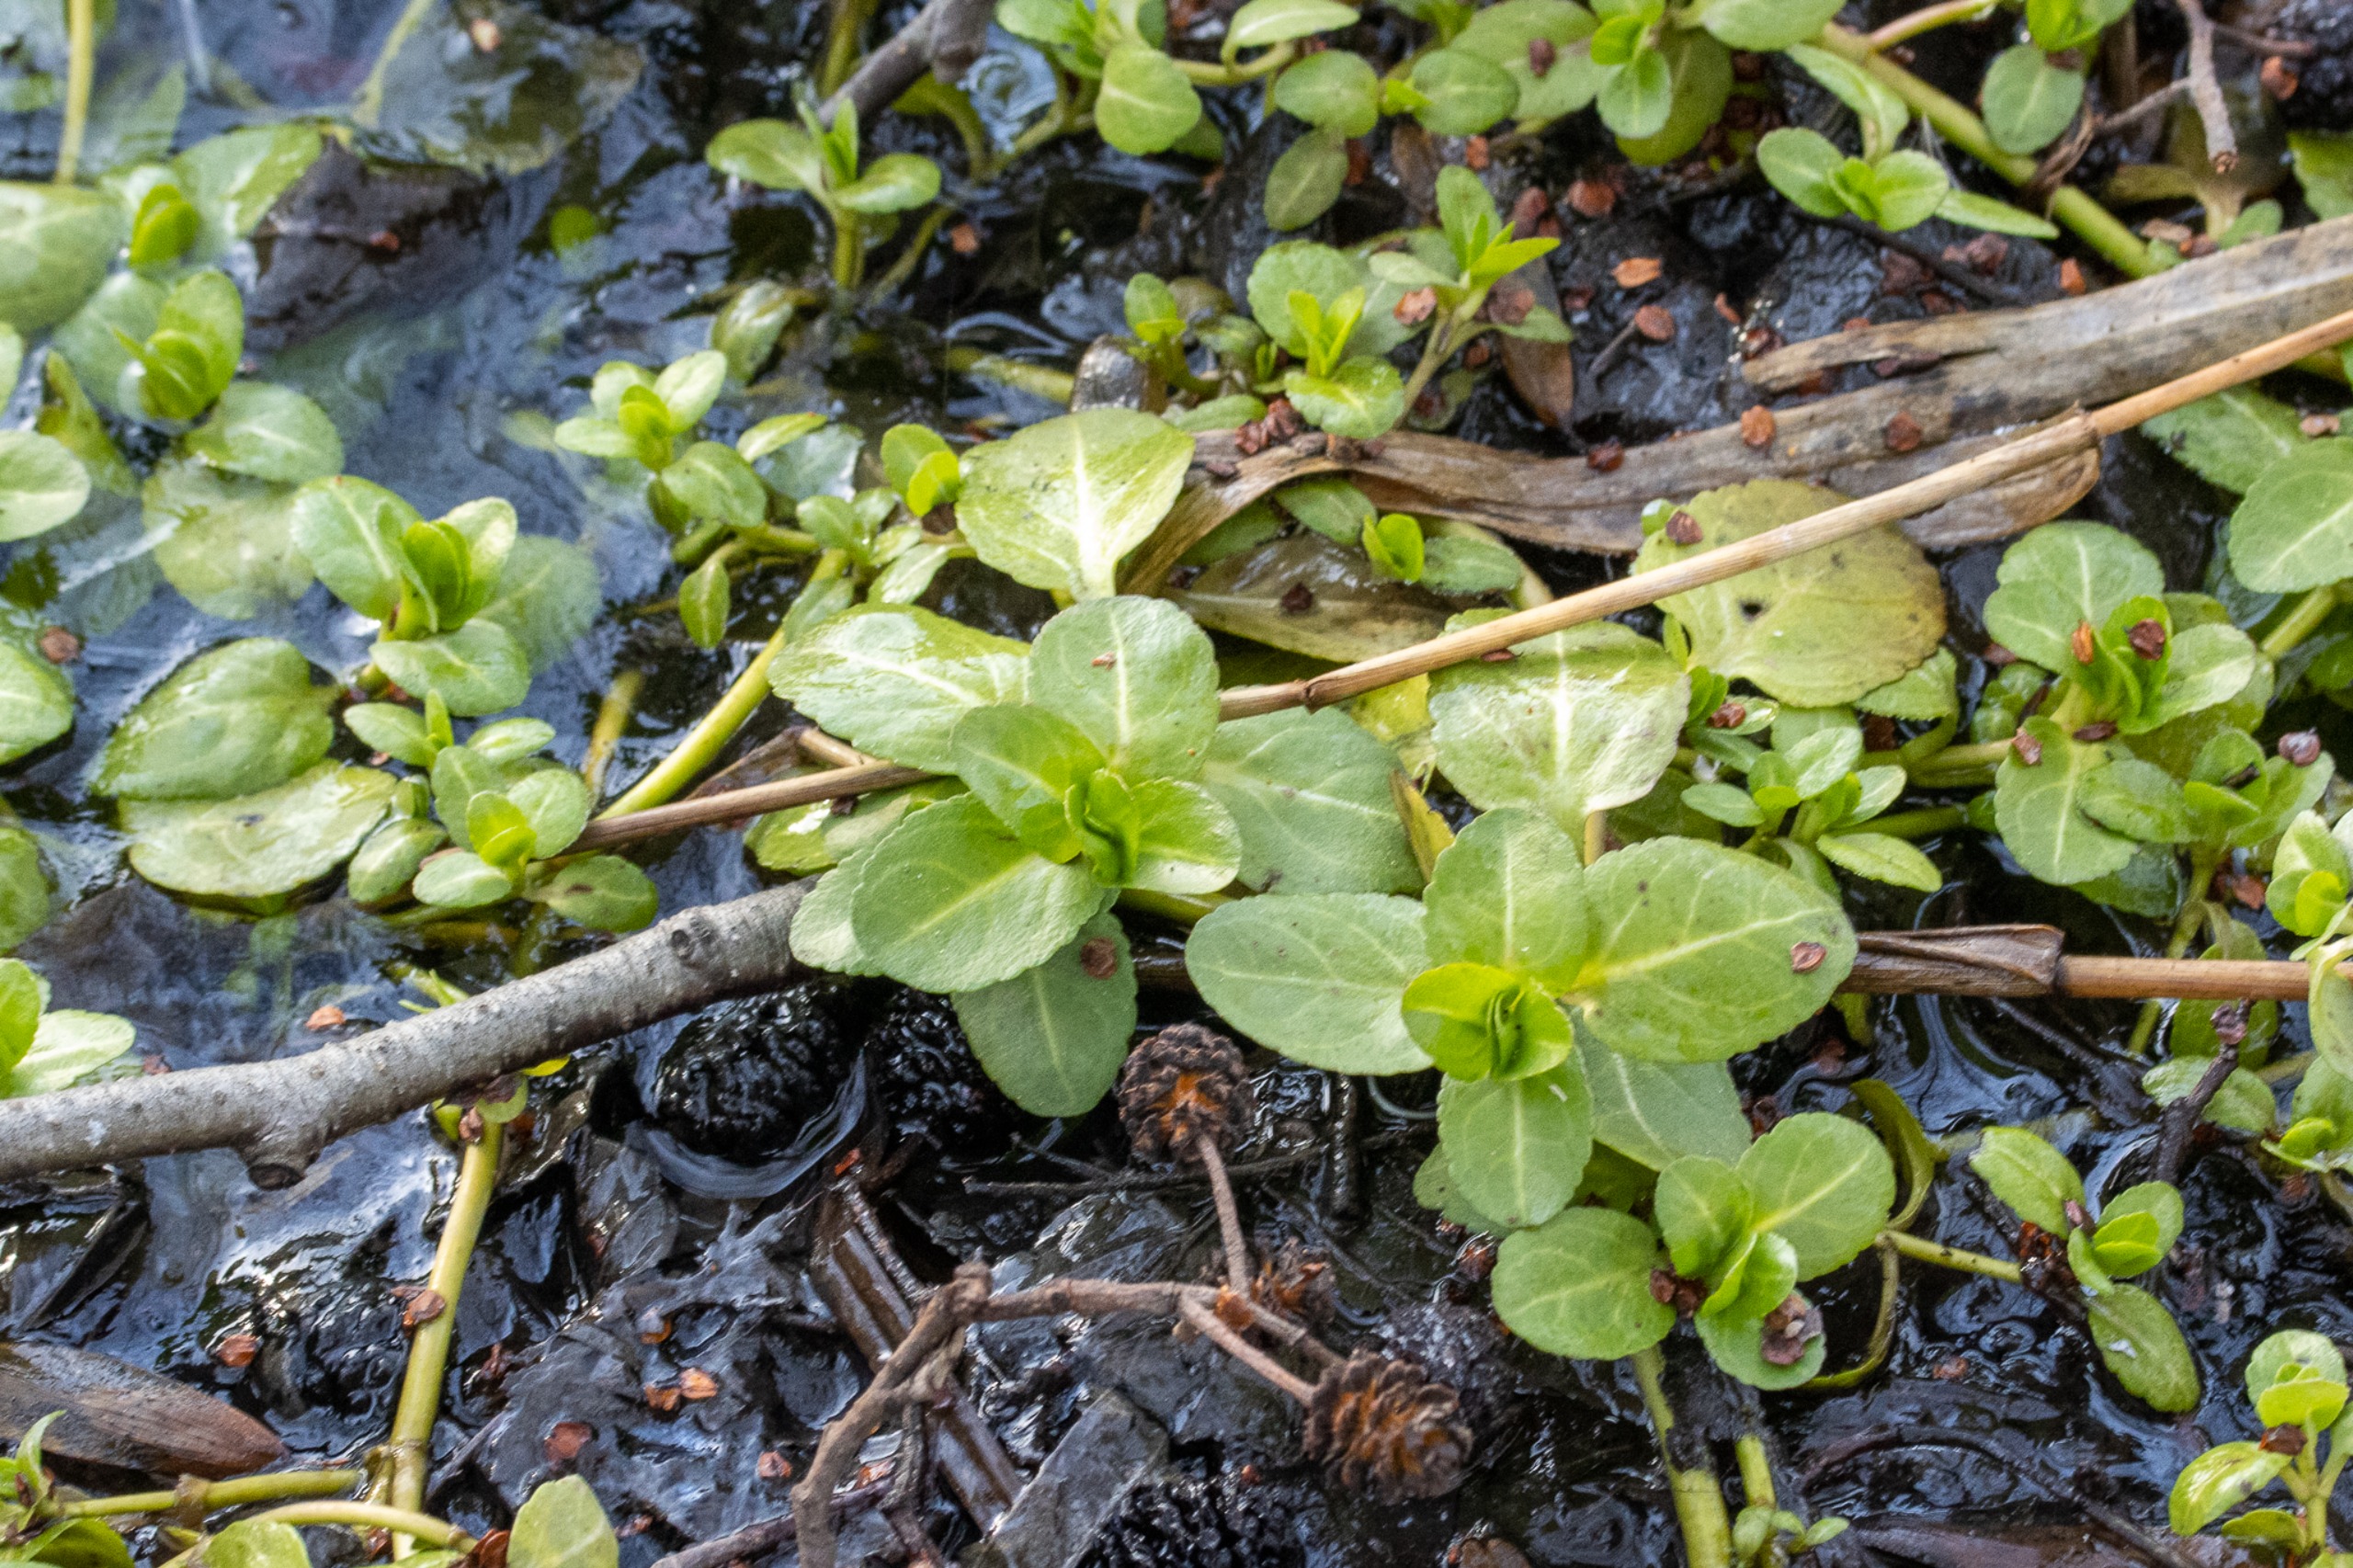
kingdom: Plantae
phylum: Tracheophyta
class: Magnoliopsida
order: Lamiales
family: Plantaginaceae
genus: Veronica
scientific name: Veronica beccabunga
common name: Tykbladet ærenpris
